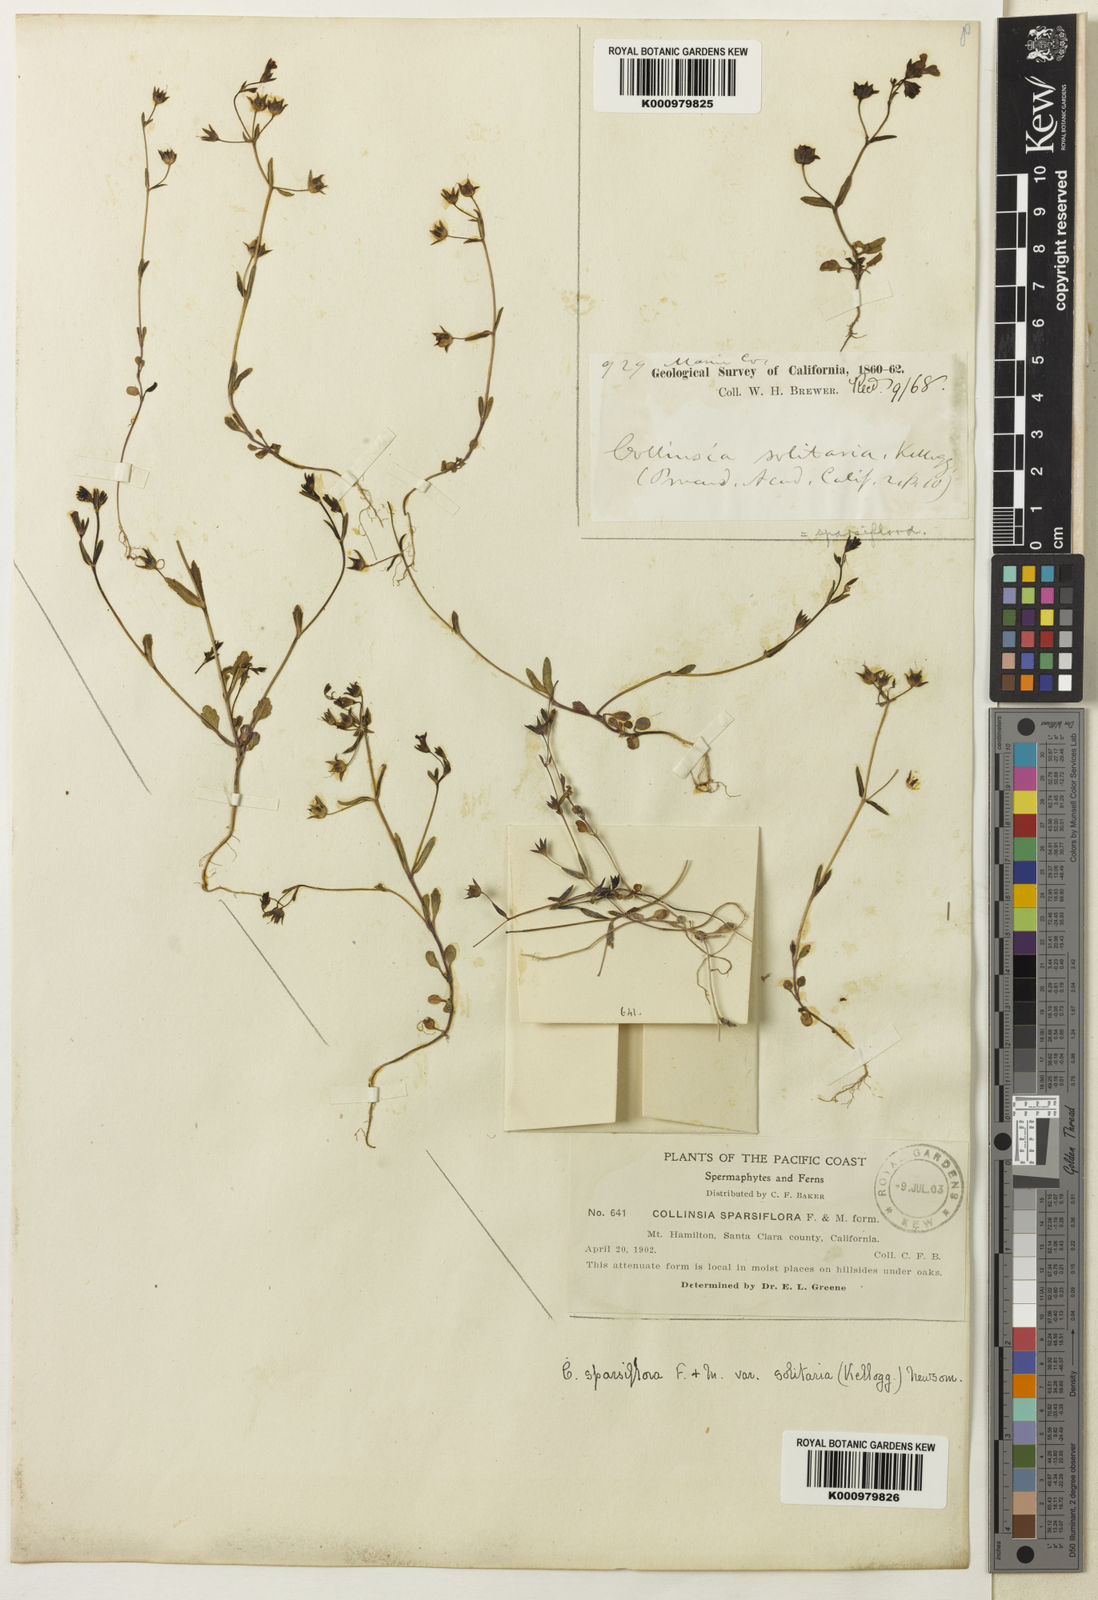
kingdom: Plantae
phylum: Tracheophyta
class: Magnoliopsida
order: Lamiales
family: Plantaginaceae
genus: Collinsia
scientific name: Collinsia sparsiflora
